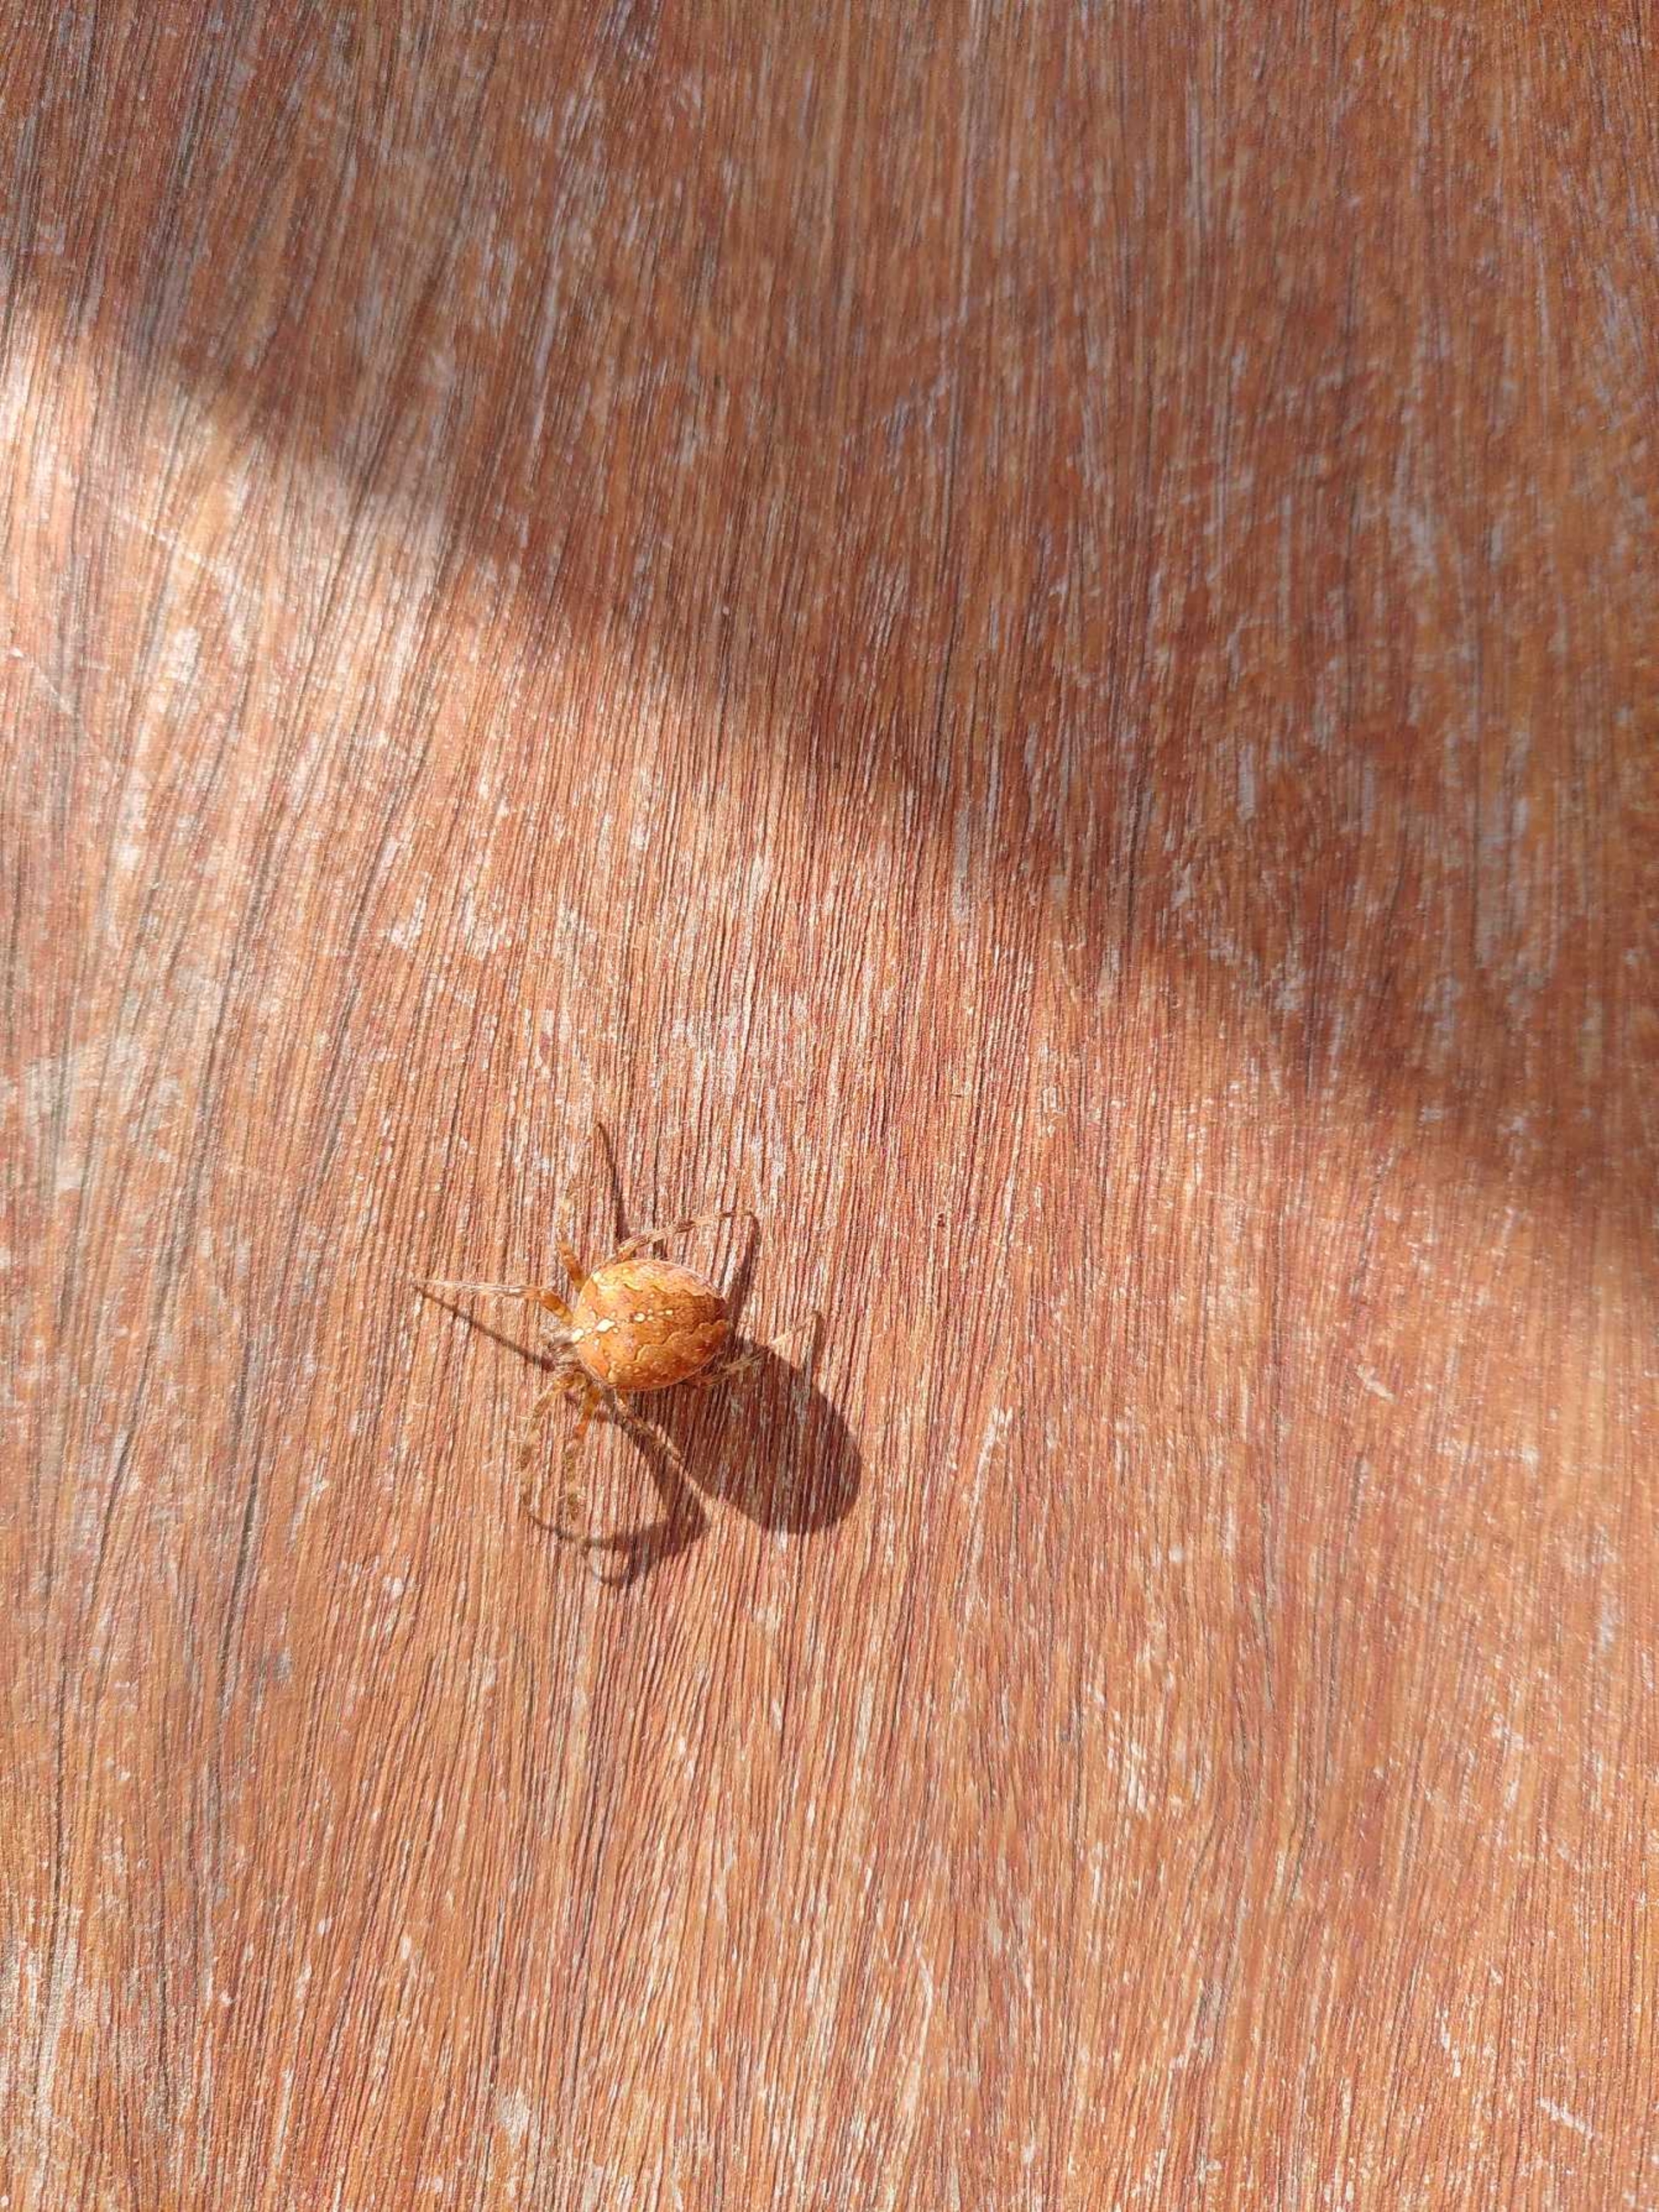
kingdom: Animalia
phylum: Arthropoda
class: Arachnida
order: Araneae
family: Araneidae
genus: Araneus
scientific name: Araneus diadematus
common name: Korsedderkop
